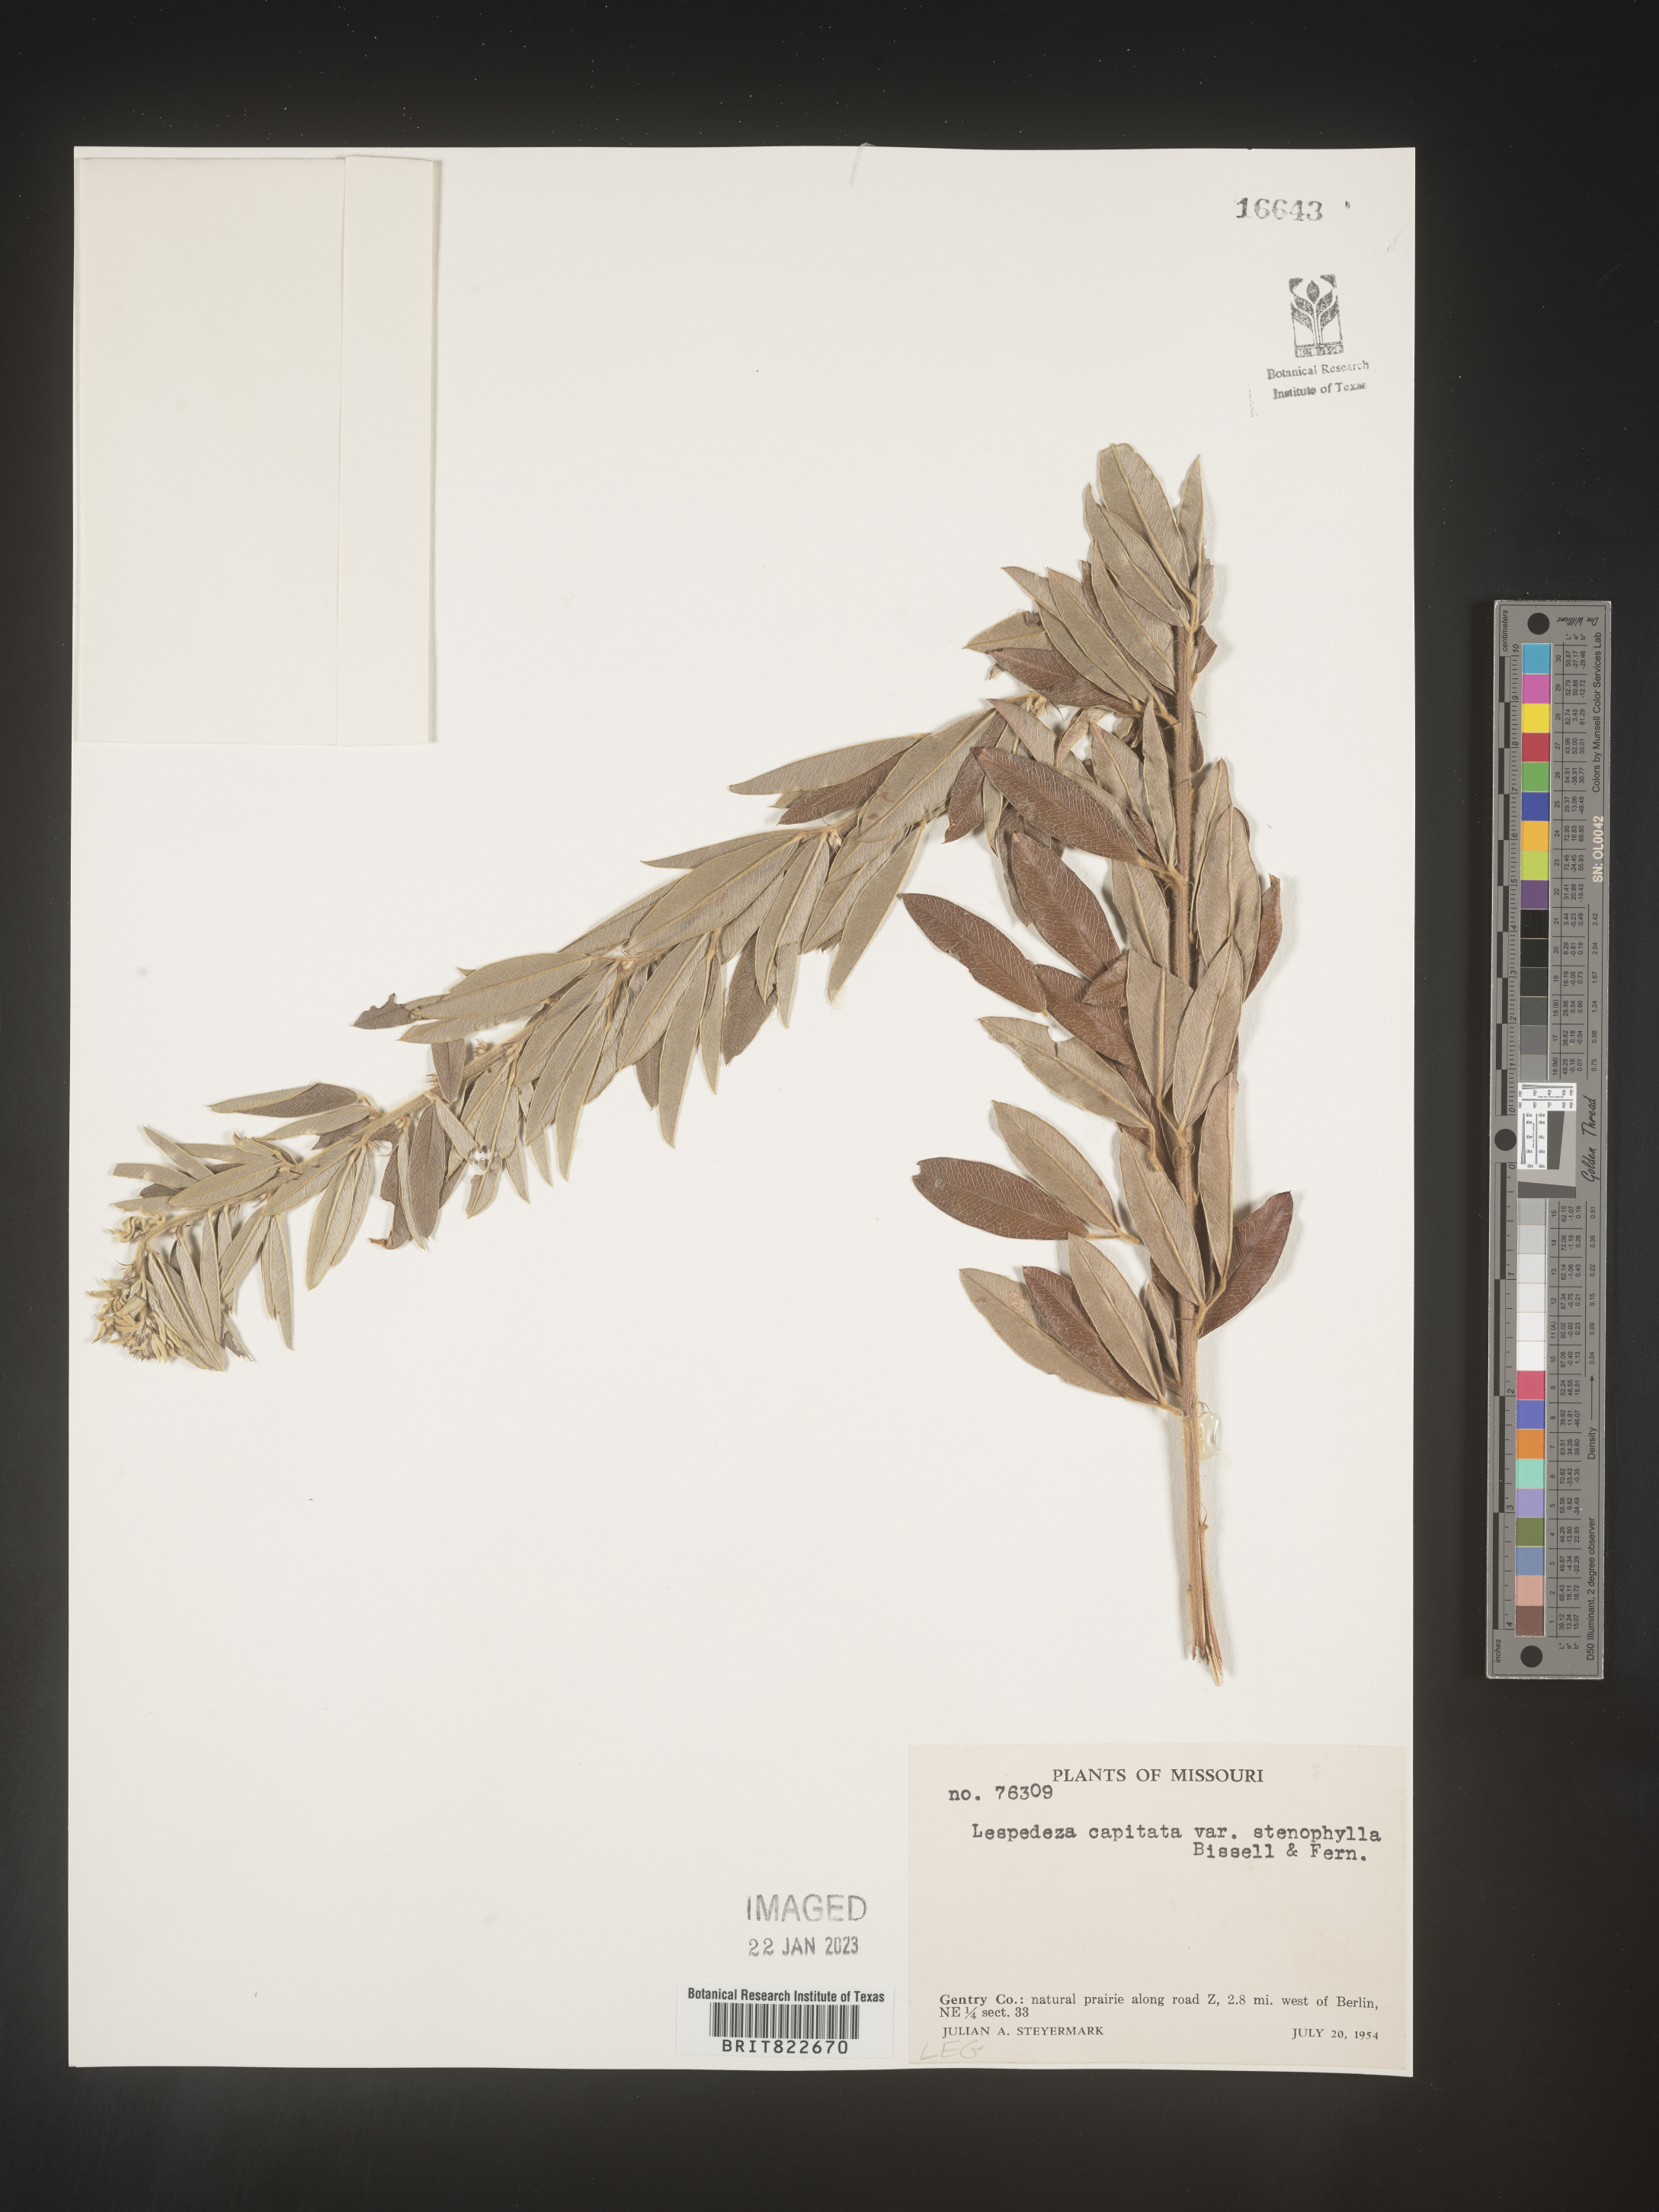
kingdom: Plantae
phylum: Tracheophyta
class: Magnoliopsida
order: Fabales
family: Fabaceae
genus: Lespedeza
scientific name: Lespedeza capitata
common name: Dusty clover
